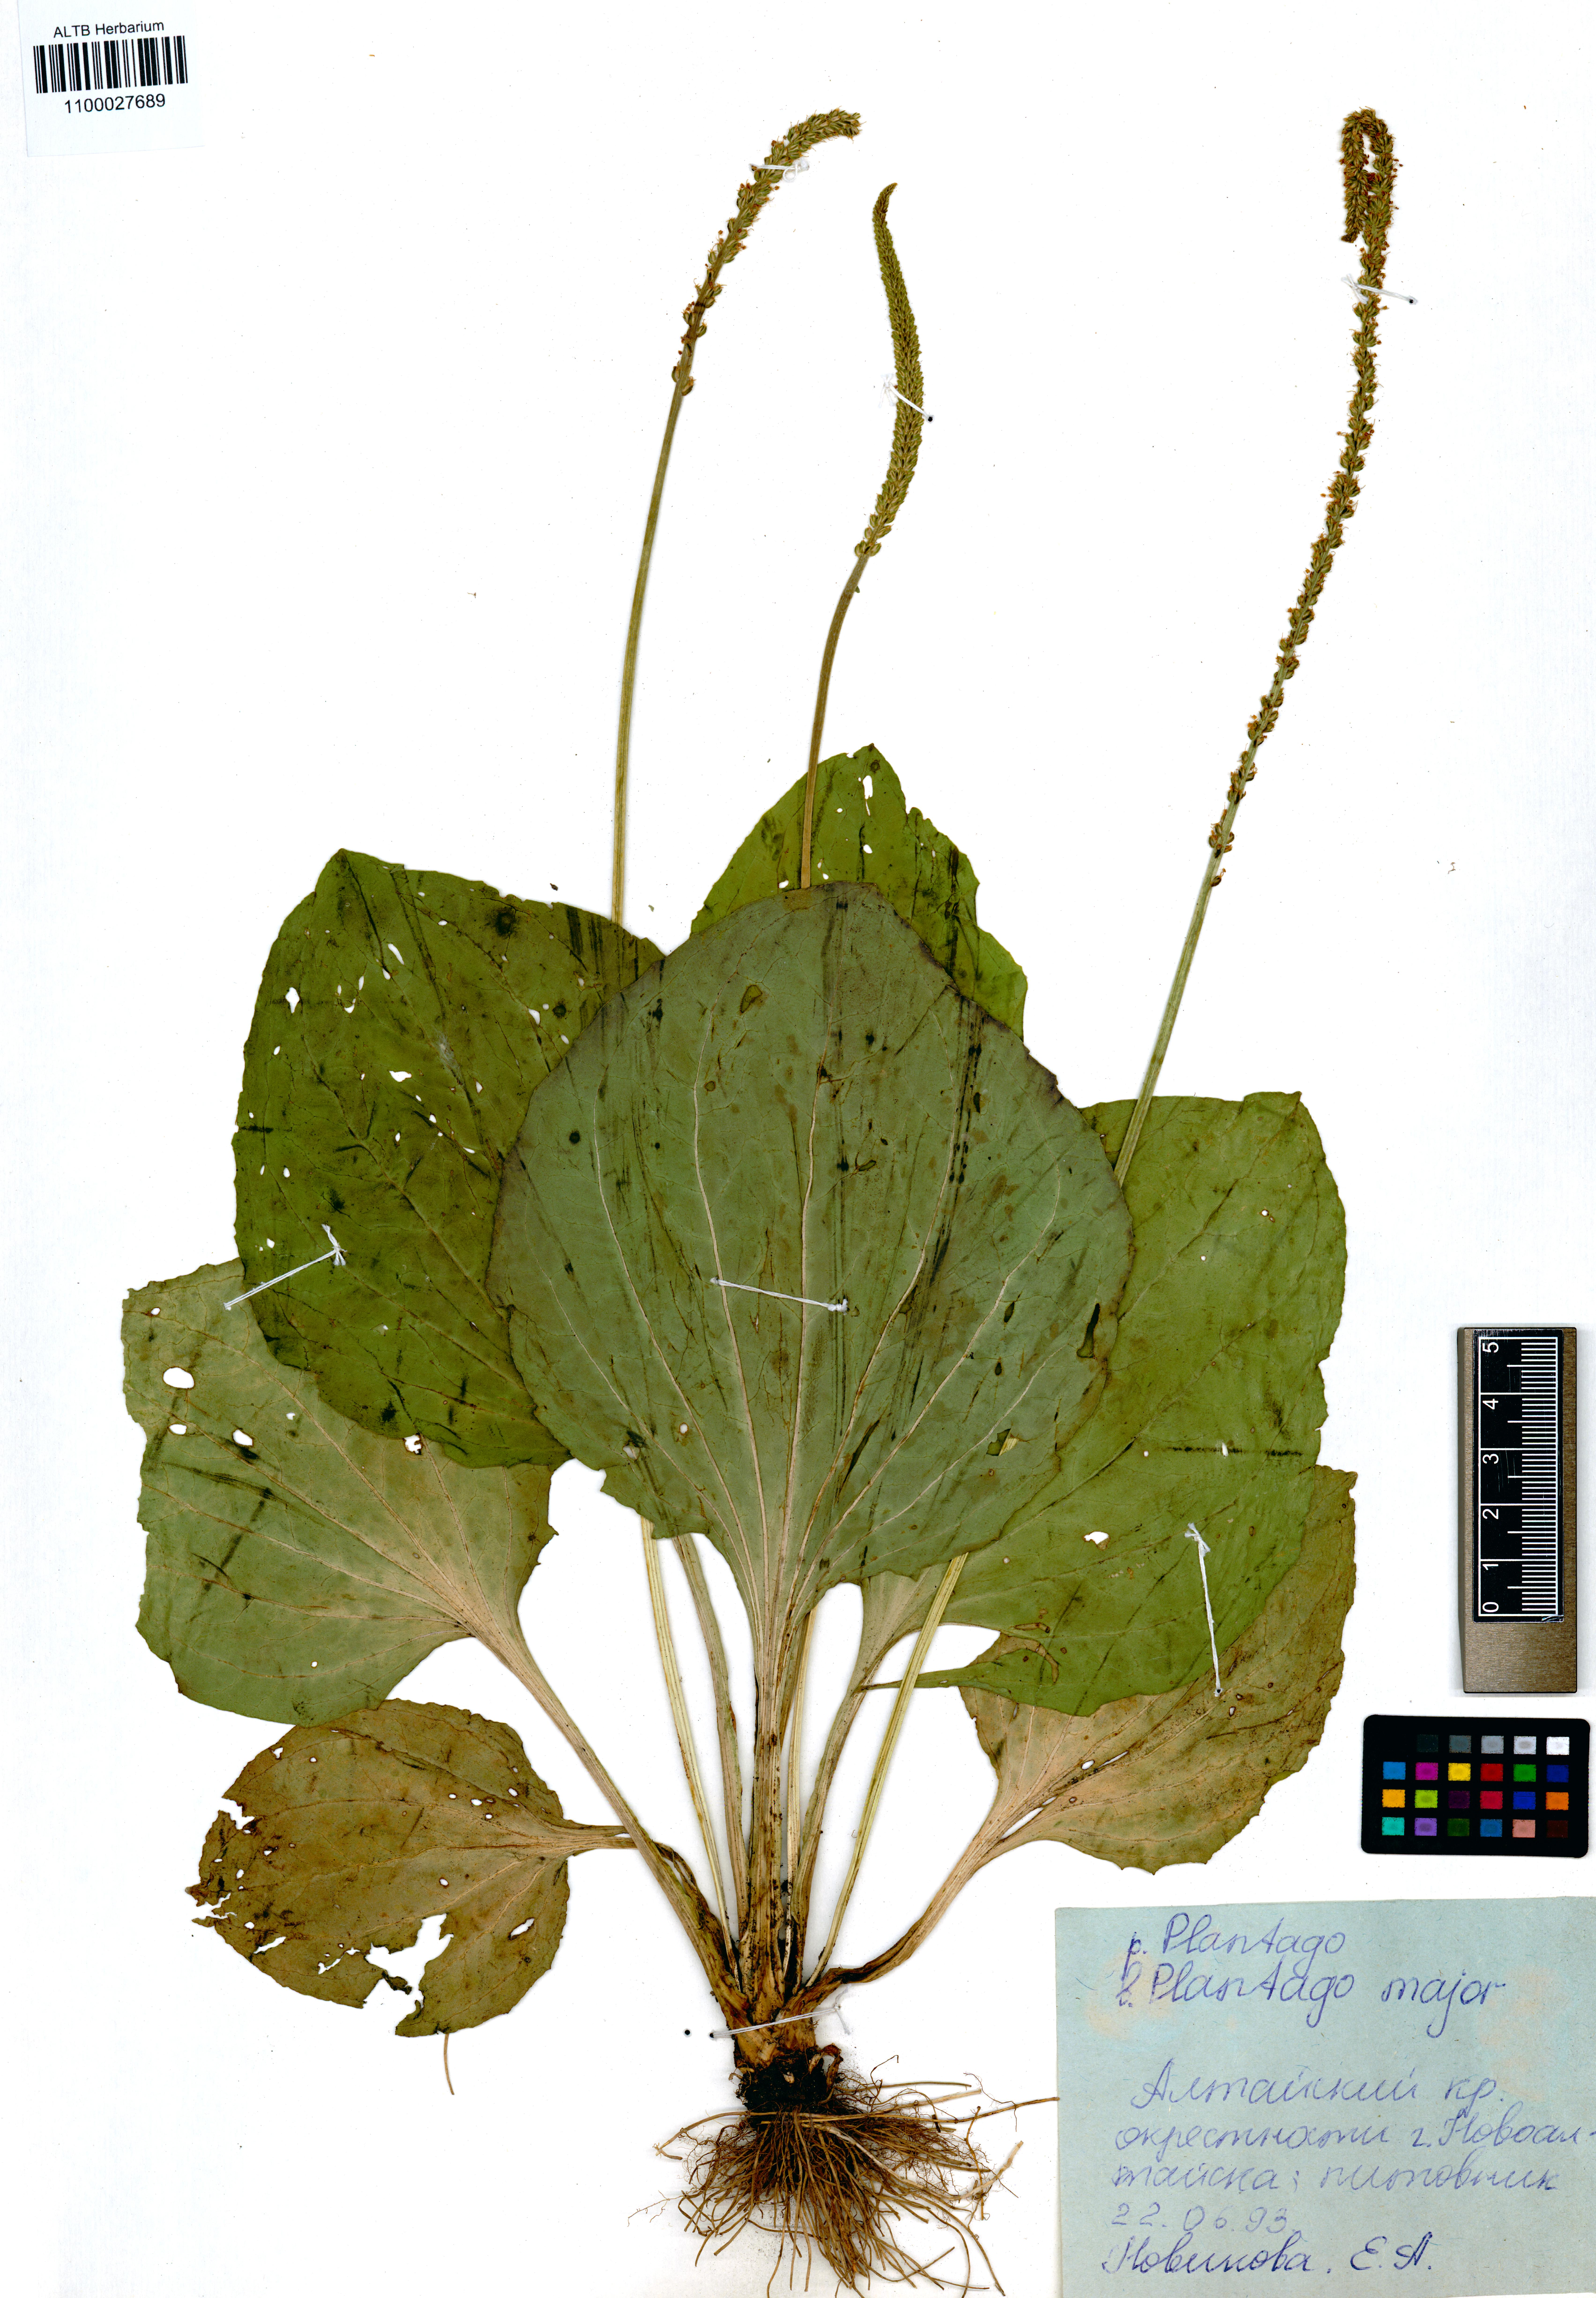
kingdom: Plantae
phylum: Tracheophyta
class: Magnoliopsida
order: Lamiales
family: Plantaginaceae
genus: Plantago
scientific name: Plantago major
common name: Common plantain
